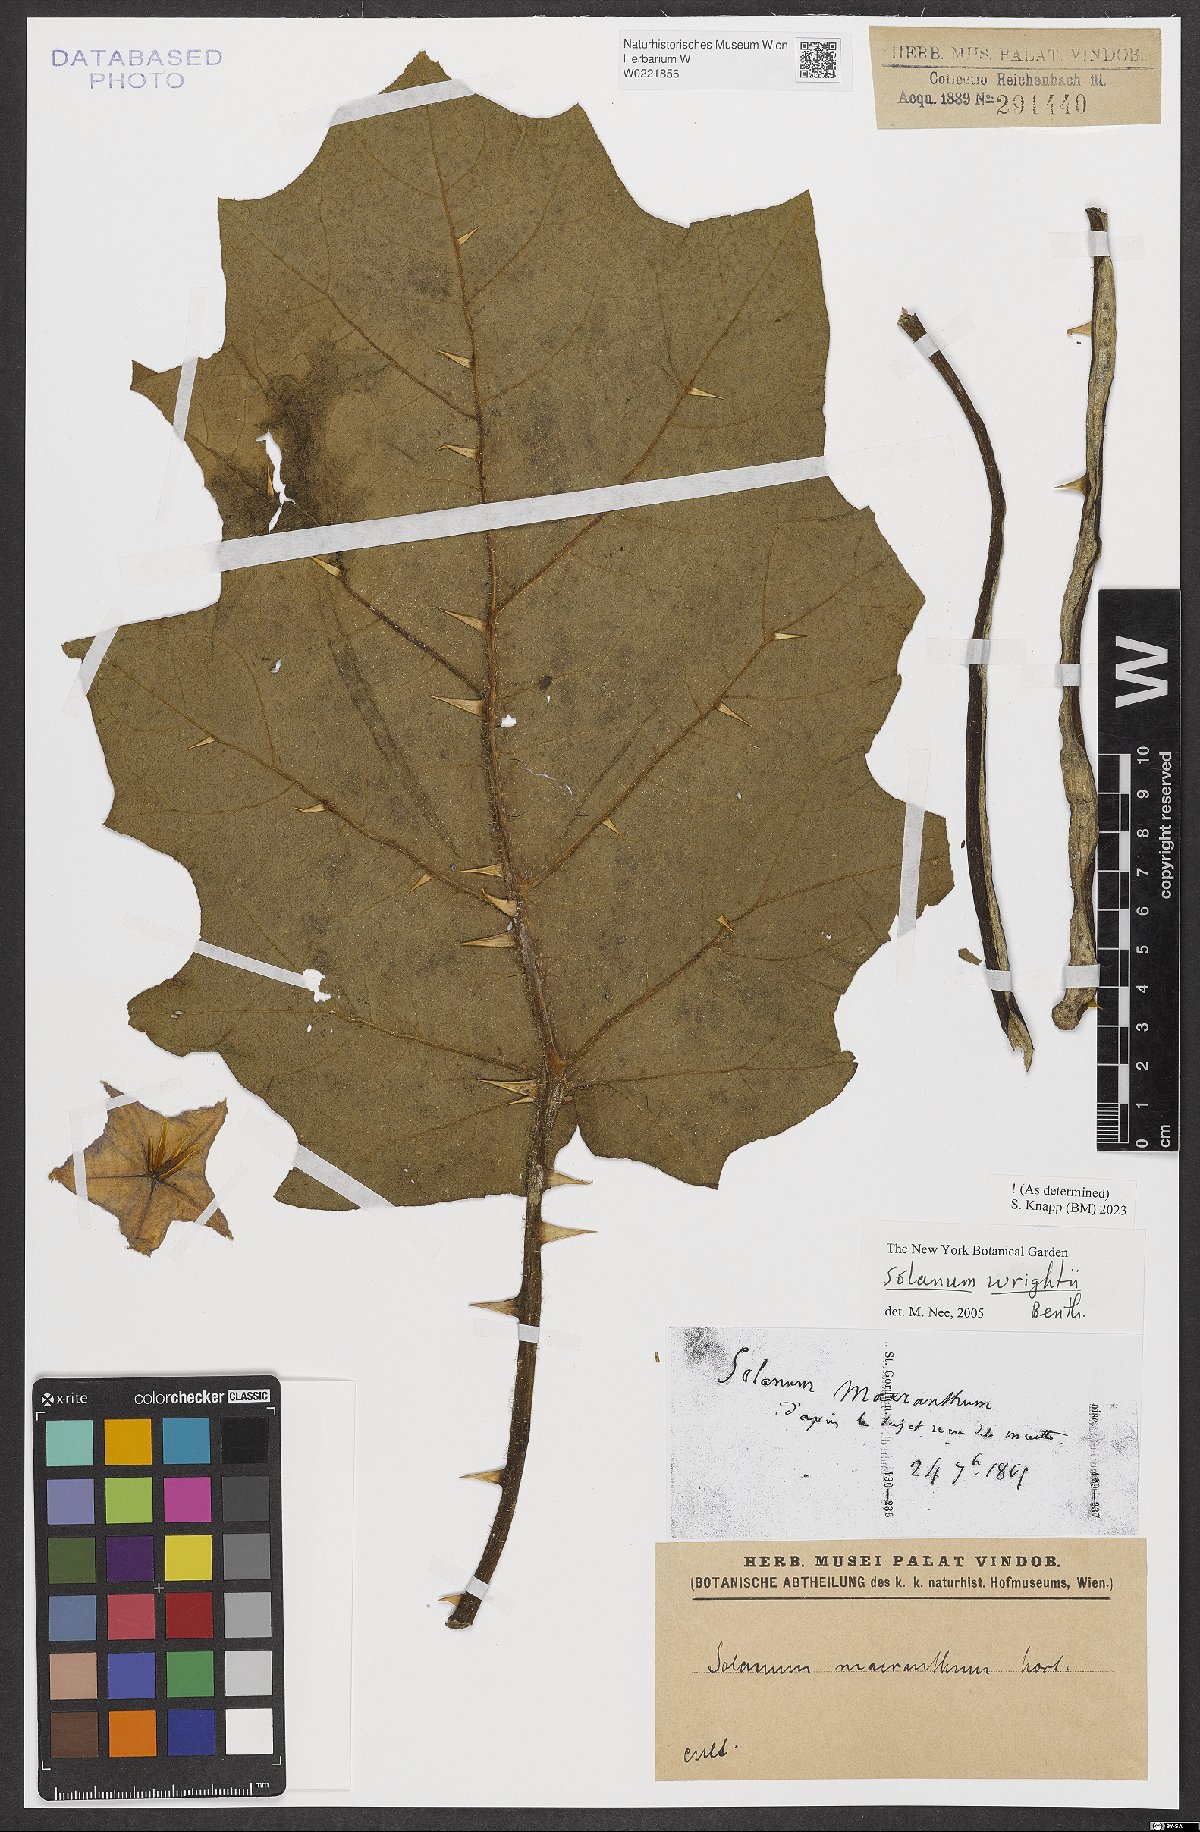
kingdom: Plantae
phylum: Tracheophyta
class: Magnoliopsida
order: Solanales
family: Solanaceae
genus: Solanum
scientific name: Solanum wrightii
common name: Brazilian potato-tree
